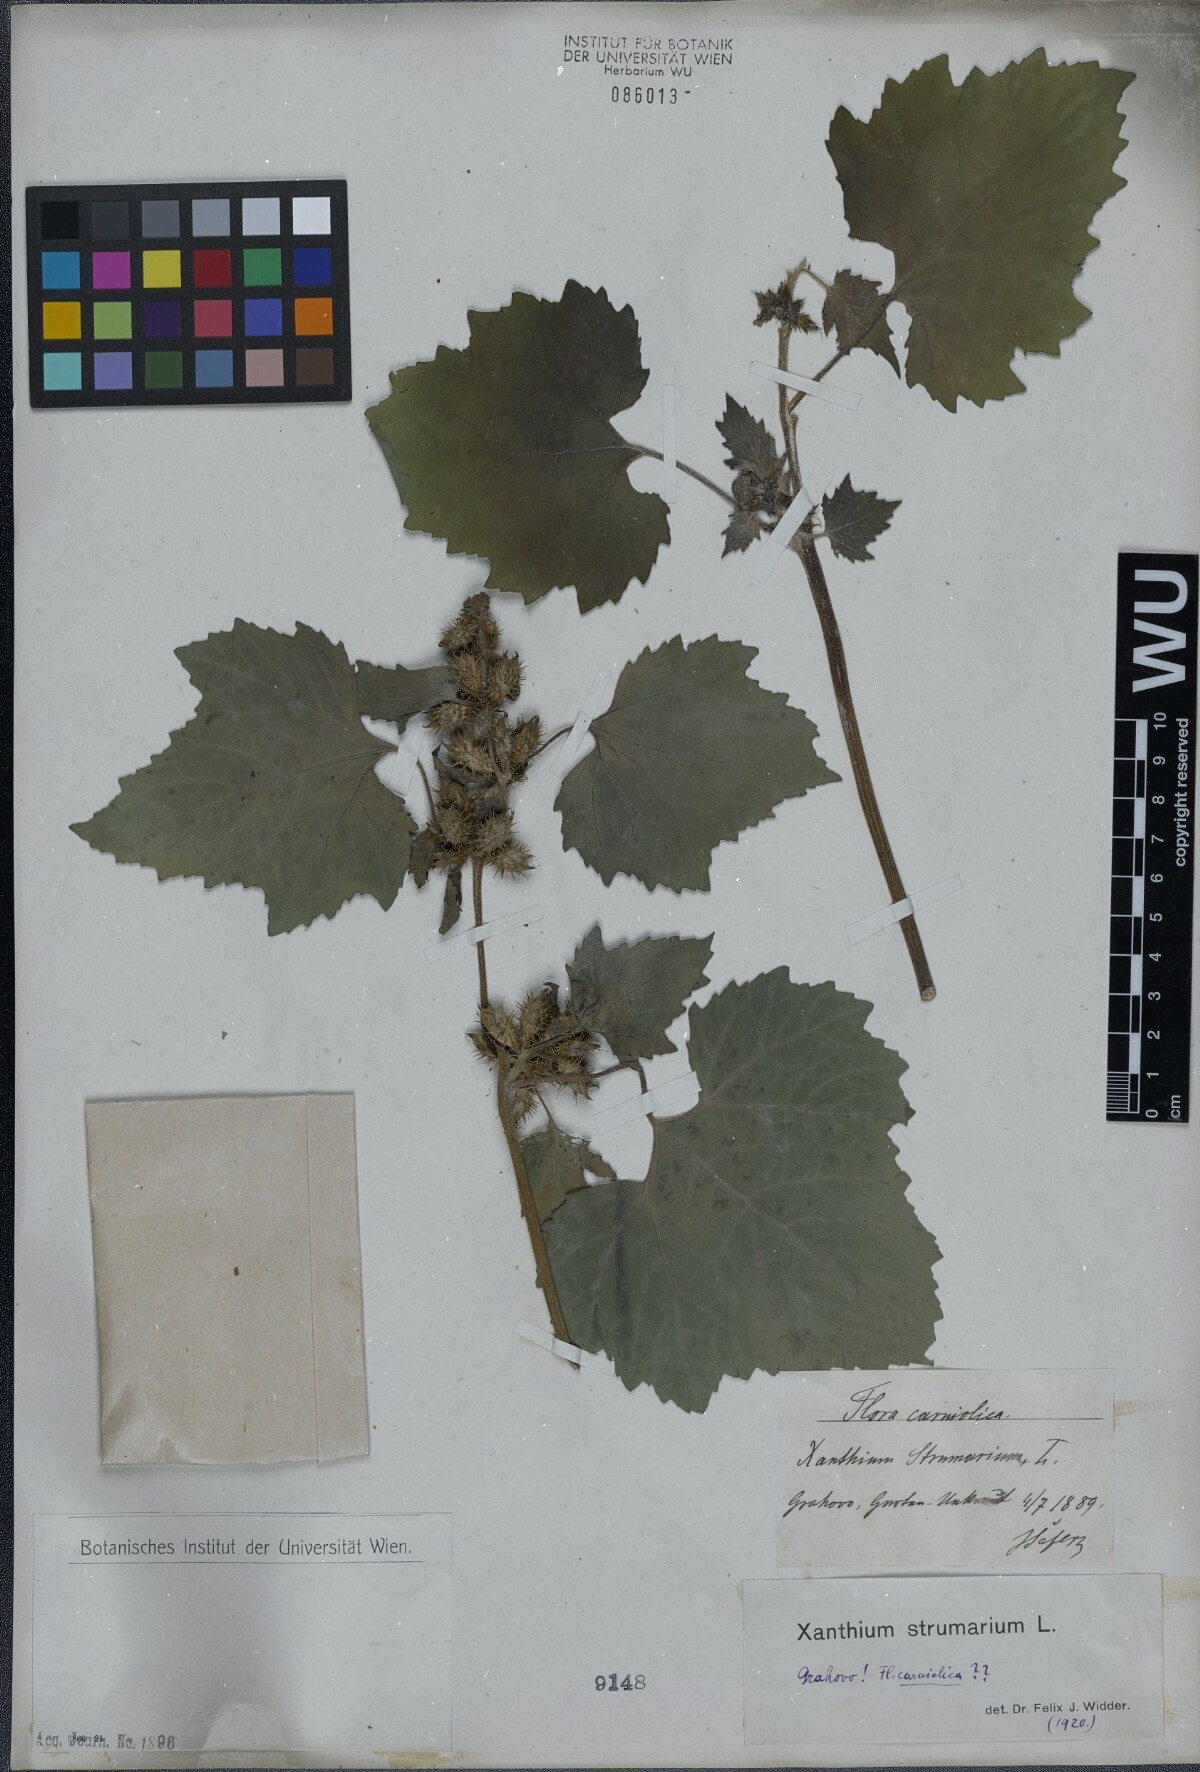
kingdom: Plantae
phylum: Tracheophyta
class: Magnoliopsida
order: Asterales
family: Asteraceae
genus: Xanthium
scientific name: Xanthium strumarium
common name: Rough cocklebur
